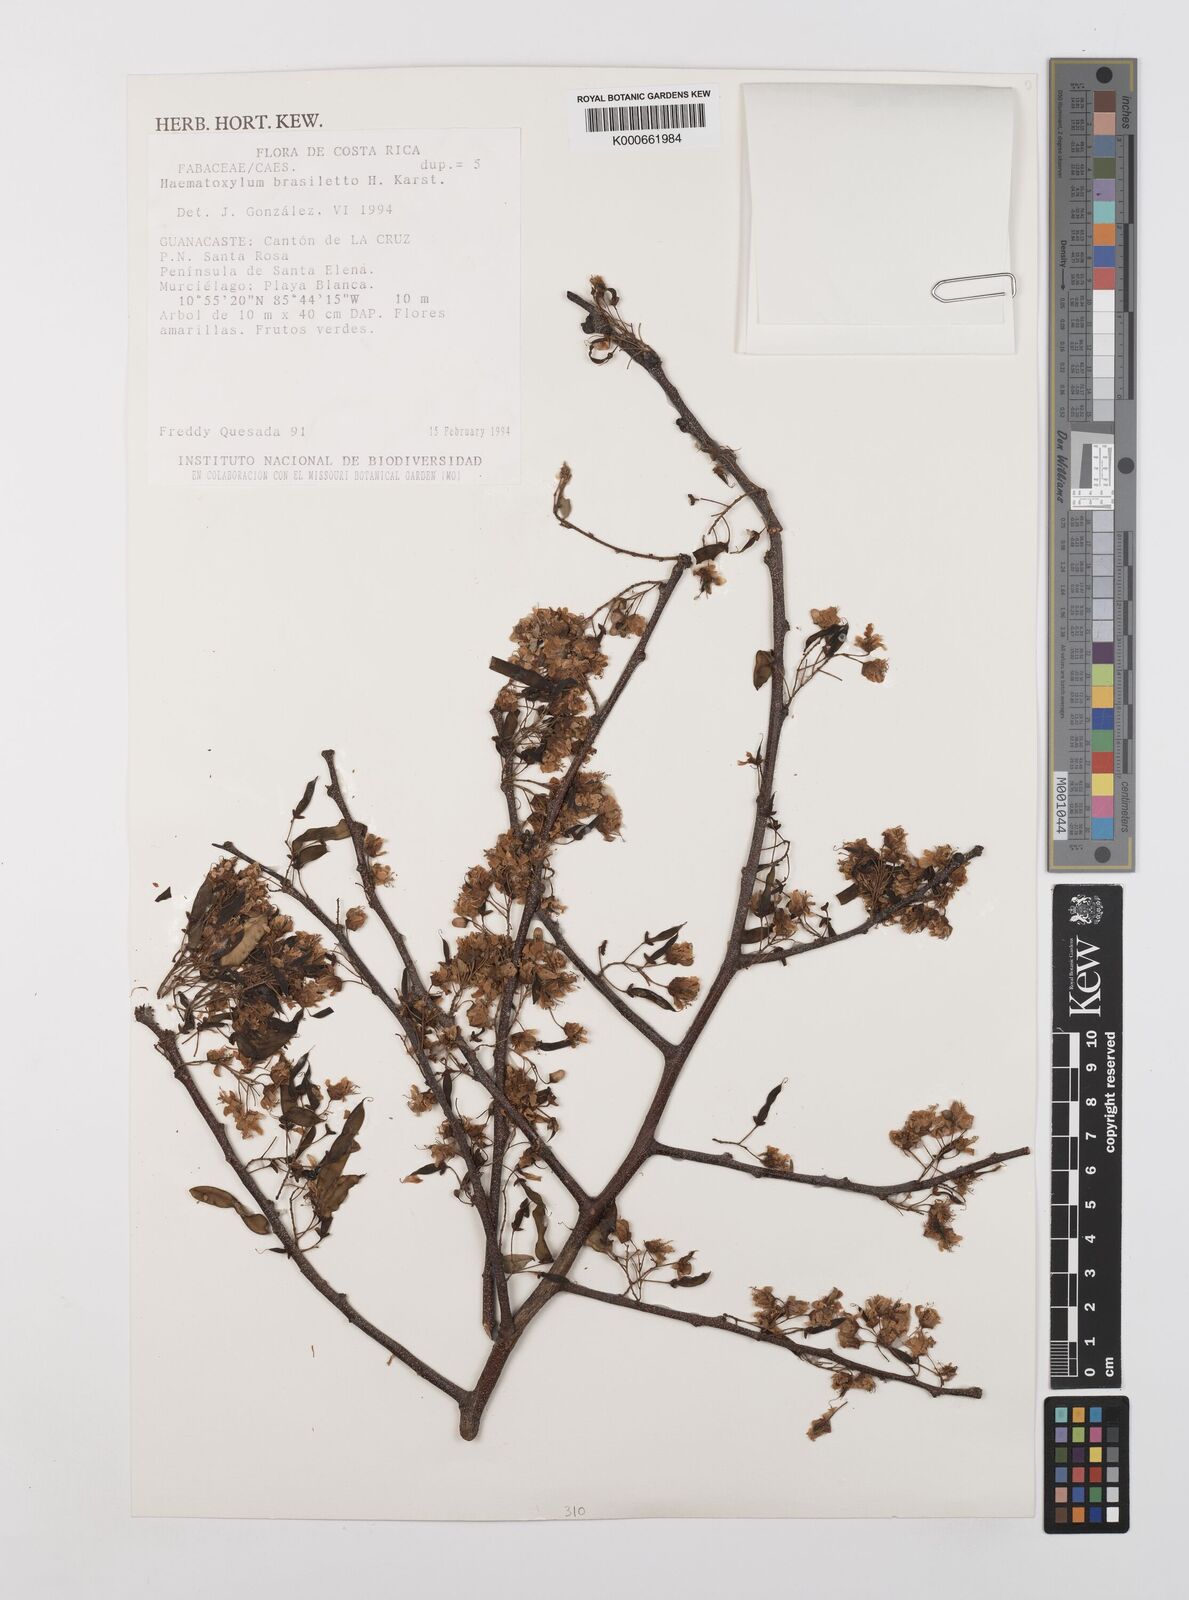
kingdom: Plantae
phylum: Tracheophyta
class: Magnoliopsida
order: Fabales
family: Fabaceae
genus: Haematoxylum
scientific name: Haematoxylum brasiletto
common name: Peachwood
